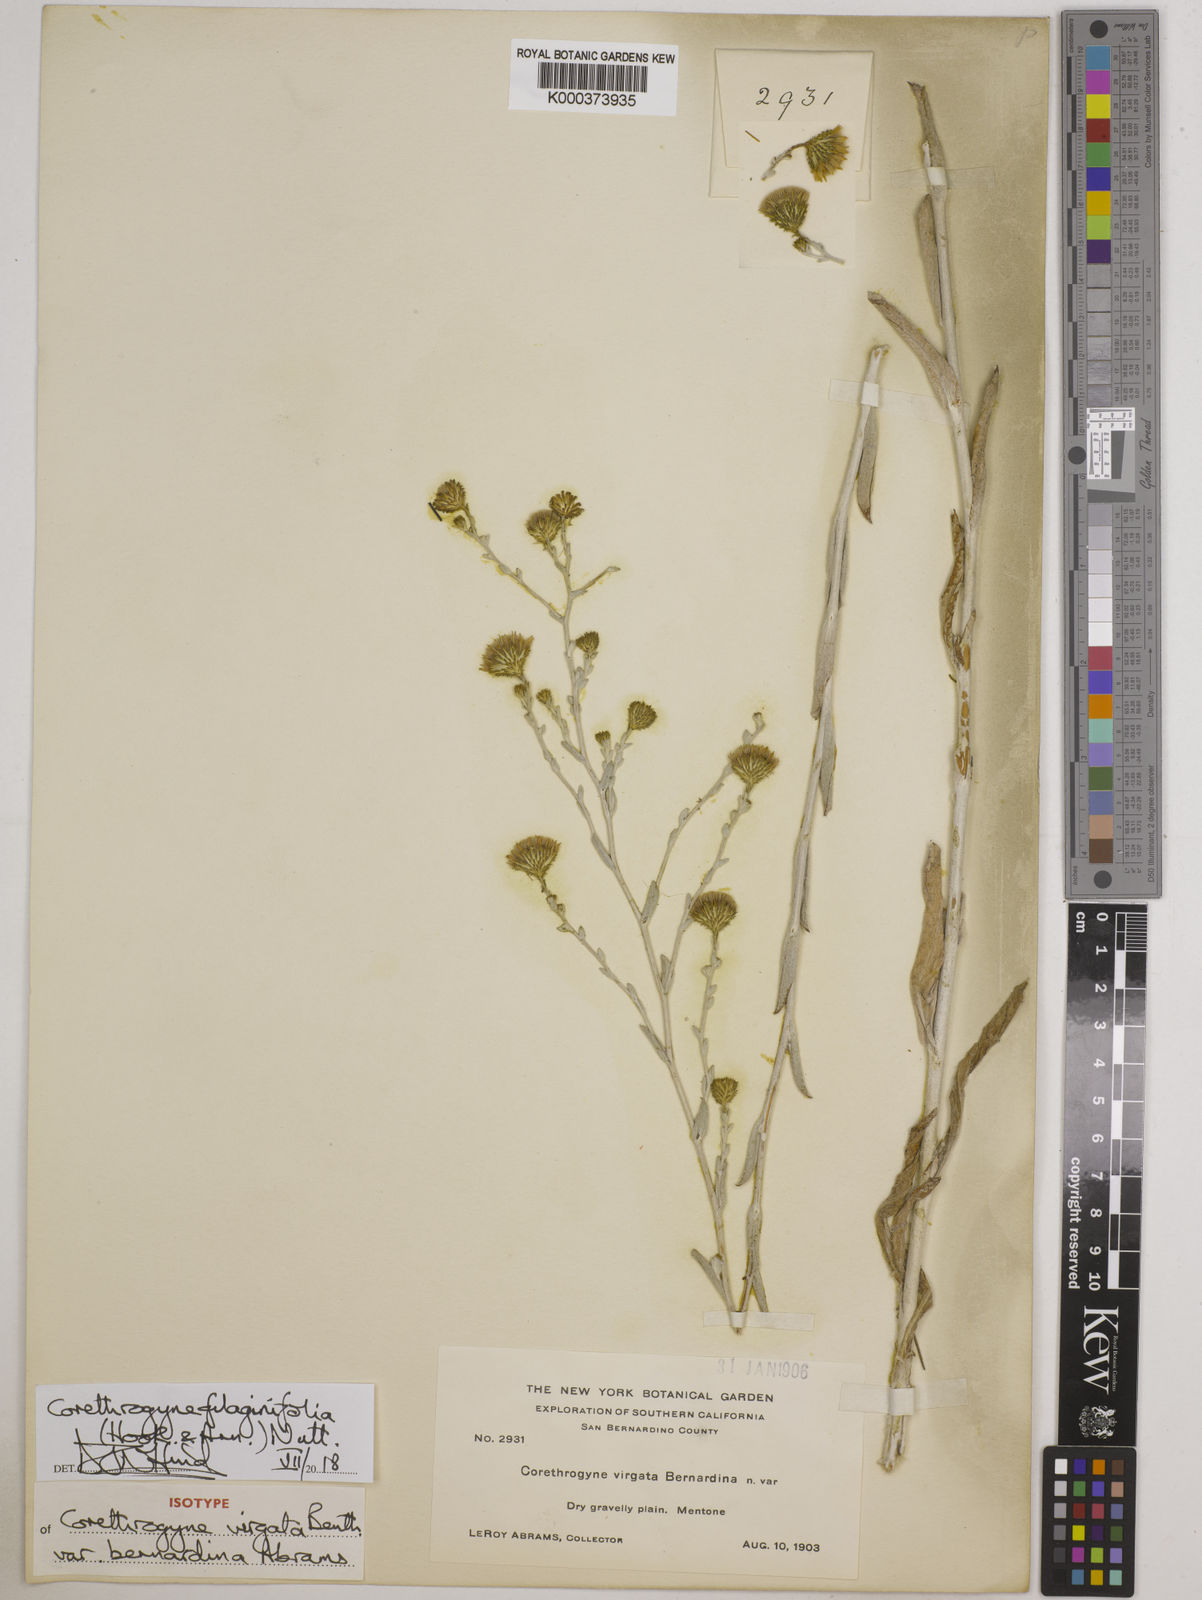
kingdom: Plantae
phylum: Tracheophyta
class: Magnoliopsida
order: Asterales
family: Asteraceae
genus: Corethrogyne
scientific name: Corethrogyne filaginifolia
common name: Sand-aster
